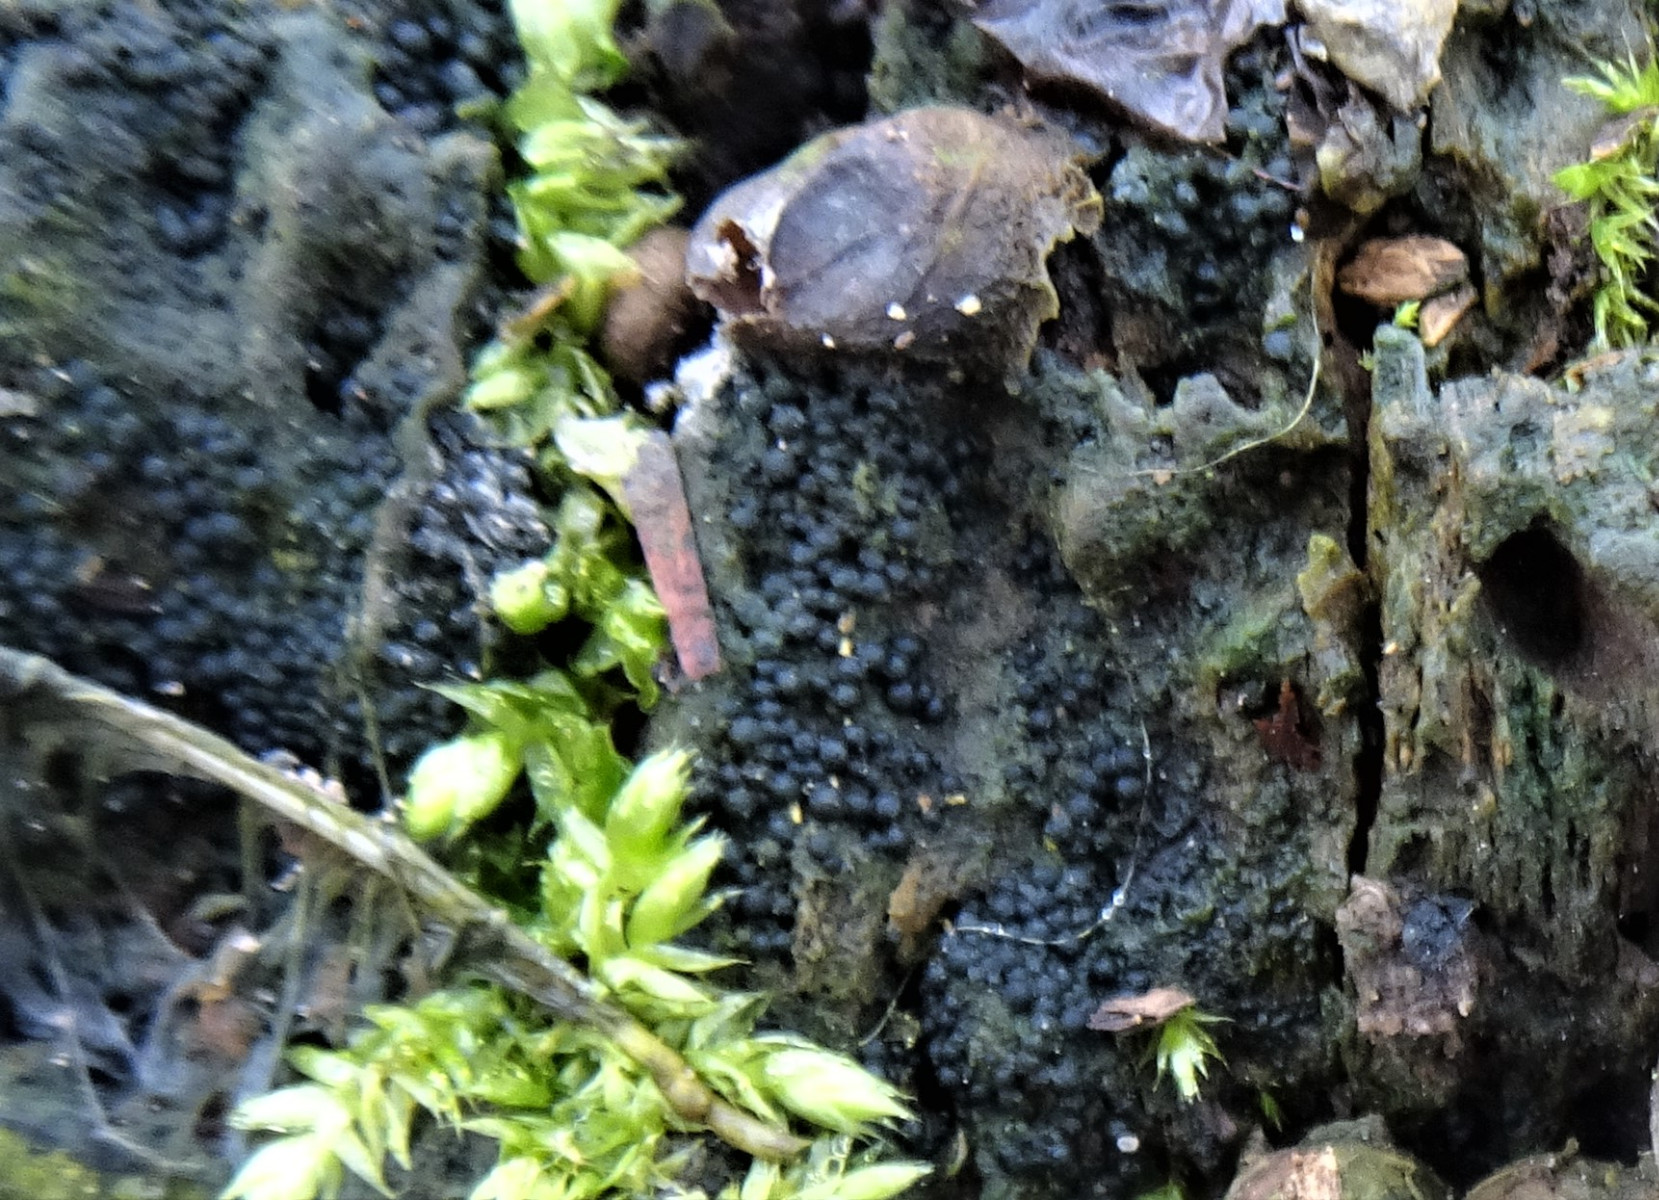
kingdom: Fungi
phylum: Ascomycota
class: Sordariomycetes
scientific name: Sordariomycetes
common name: kernesvampklassen
